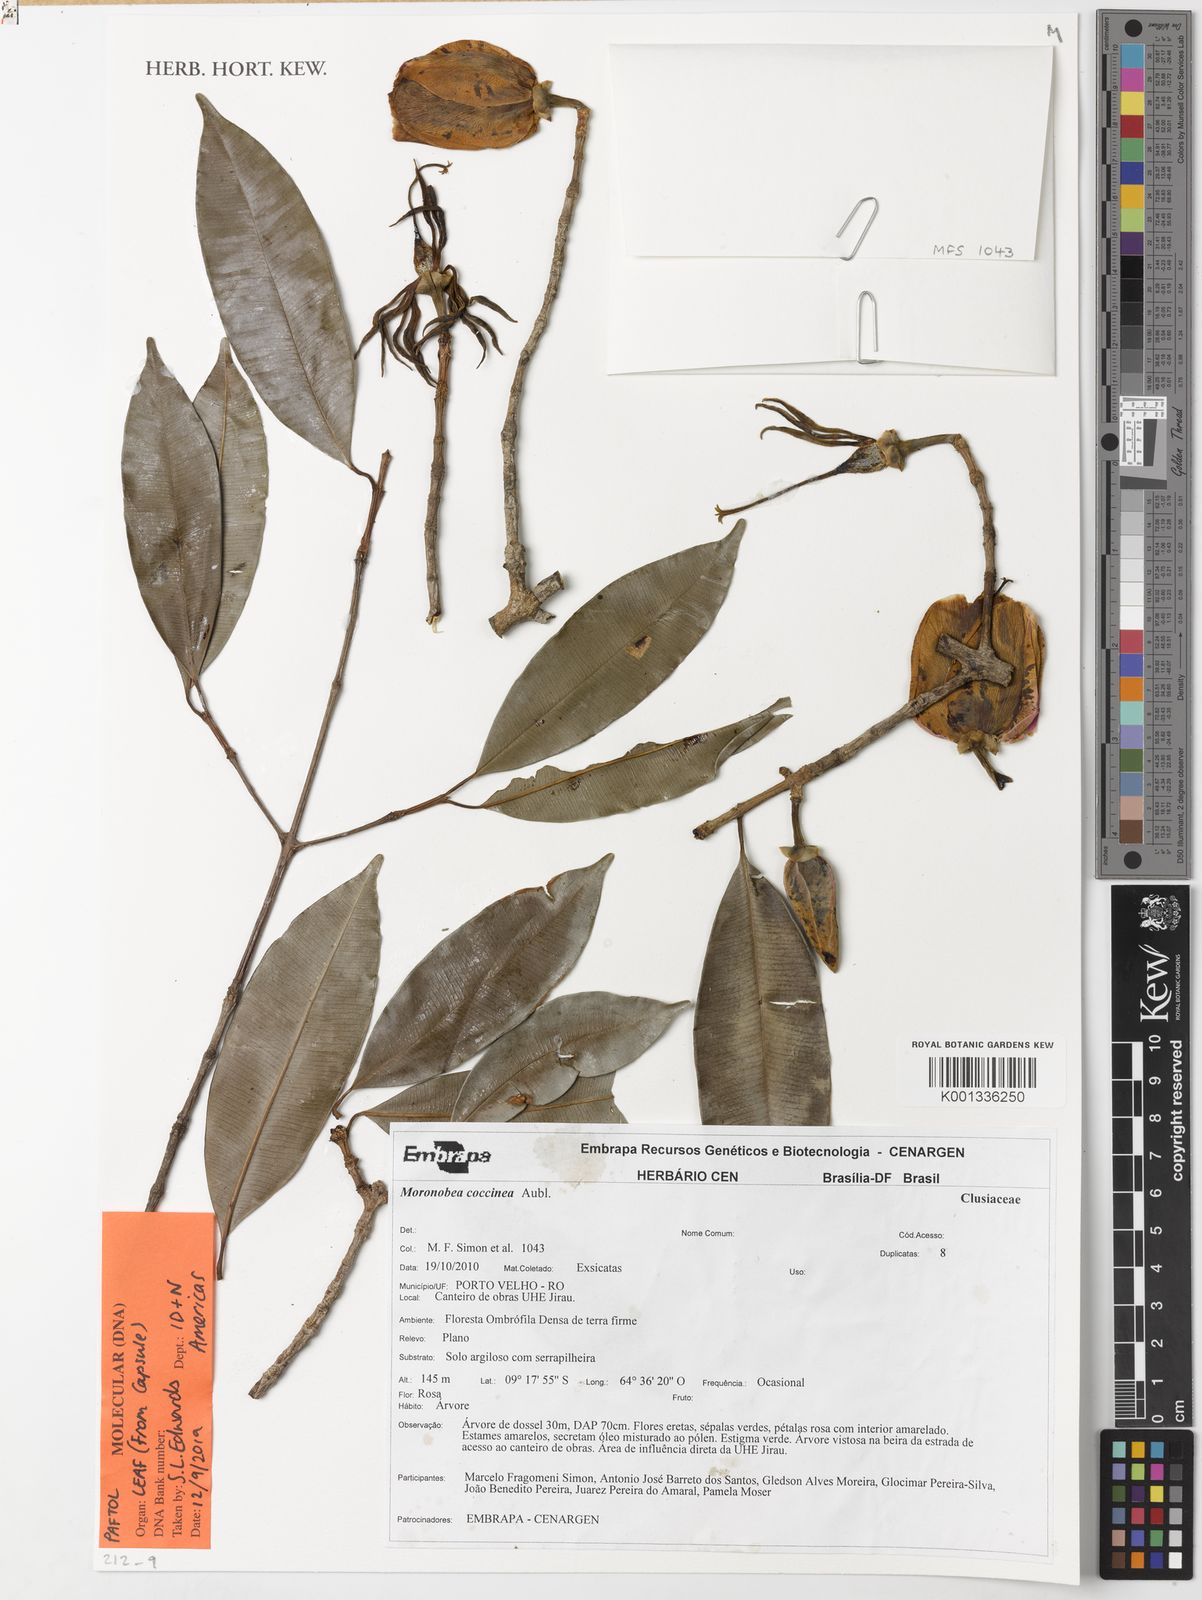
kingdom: Plantae
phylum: Tracheophyta
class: Magnoliopsida
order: Malpighiales
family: Clusiaceae
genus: Moronobea
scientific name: Moronobea coccinea
